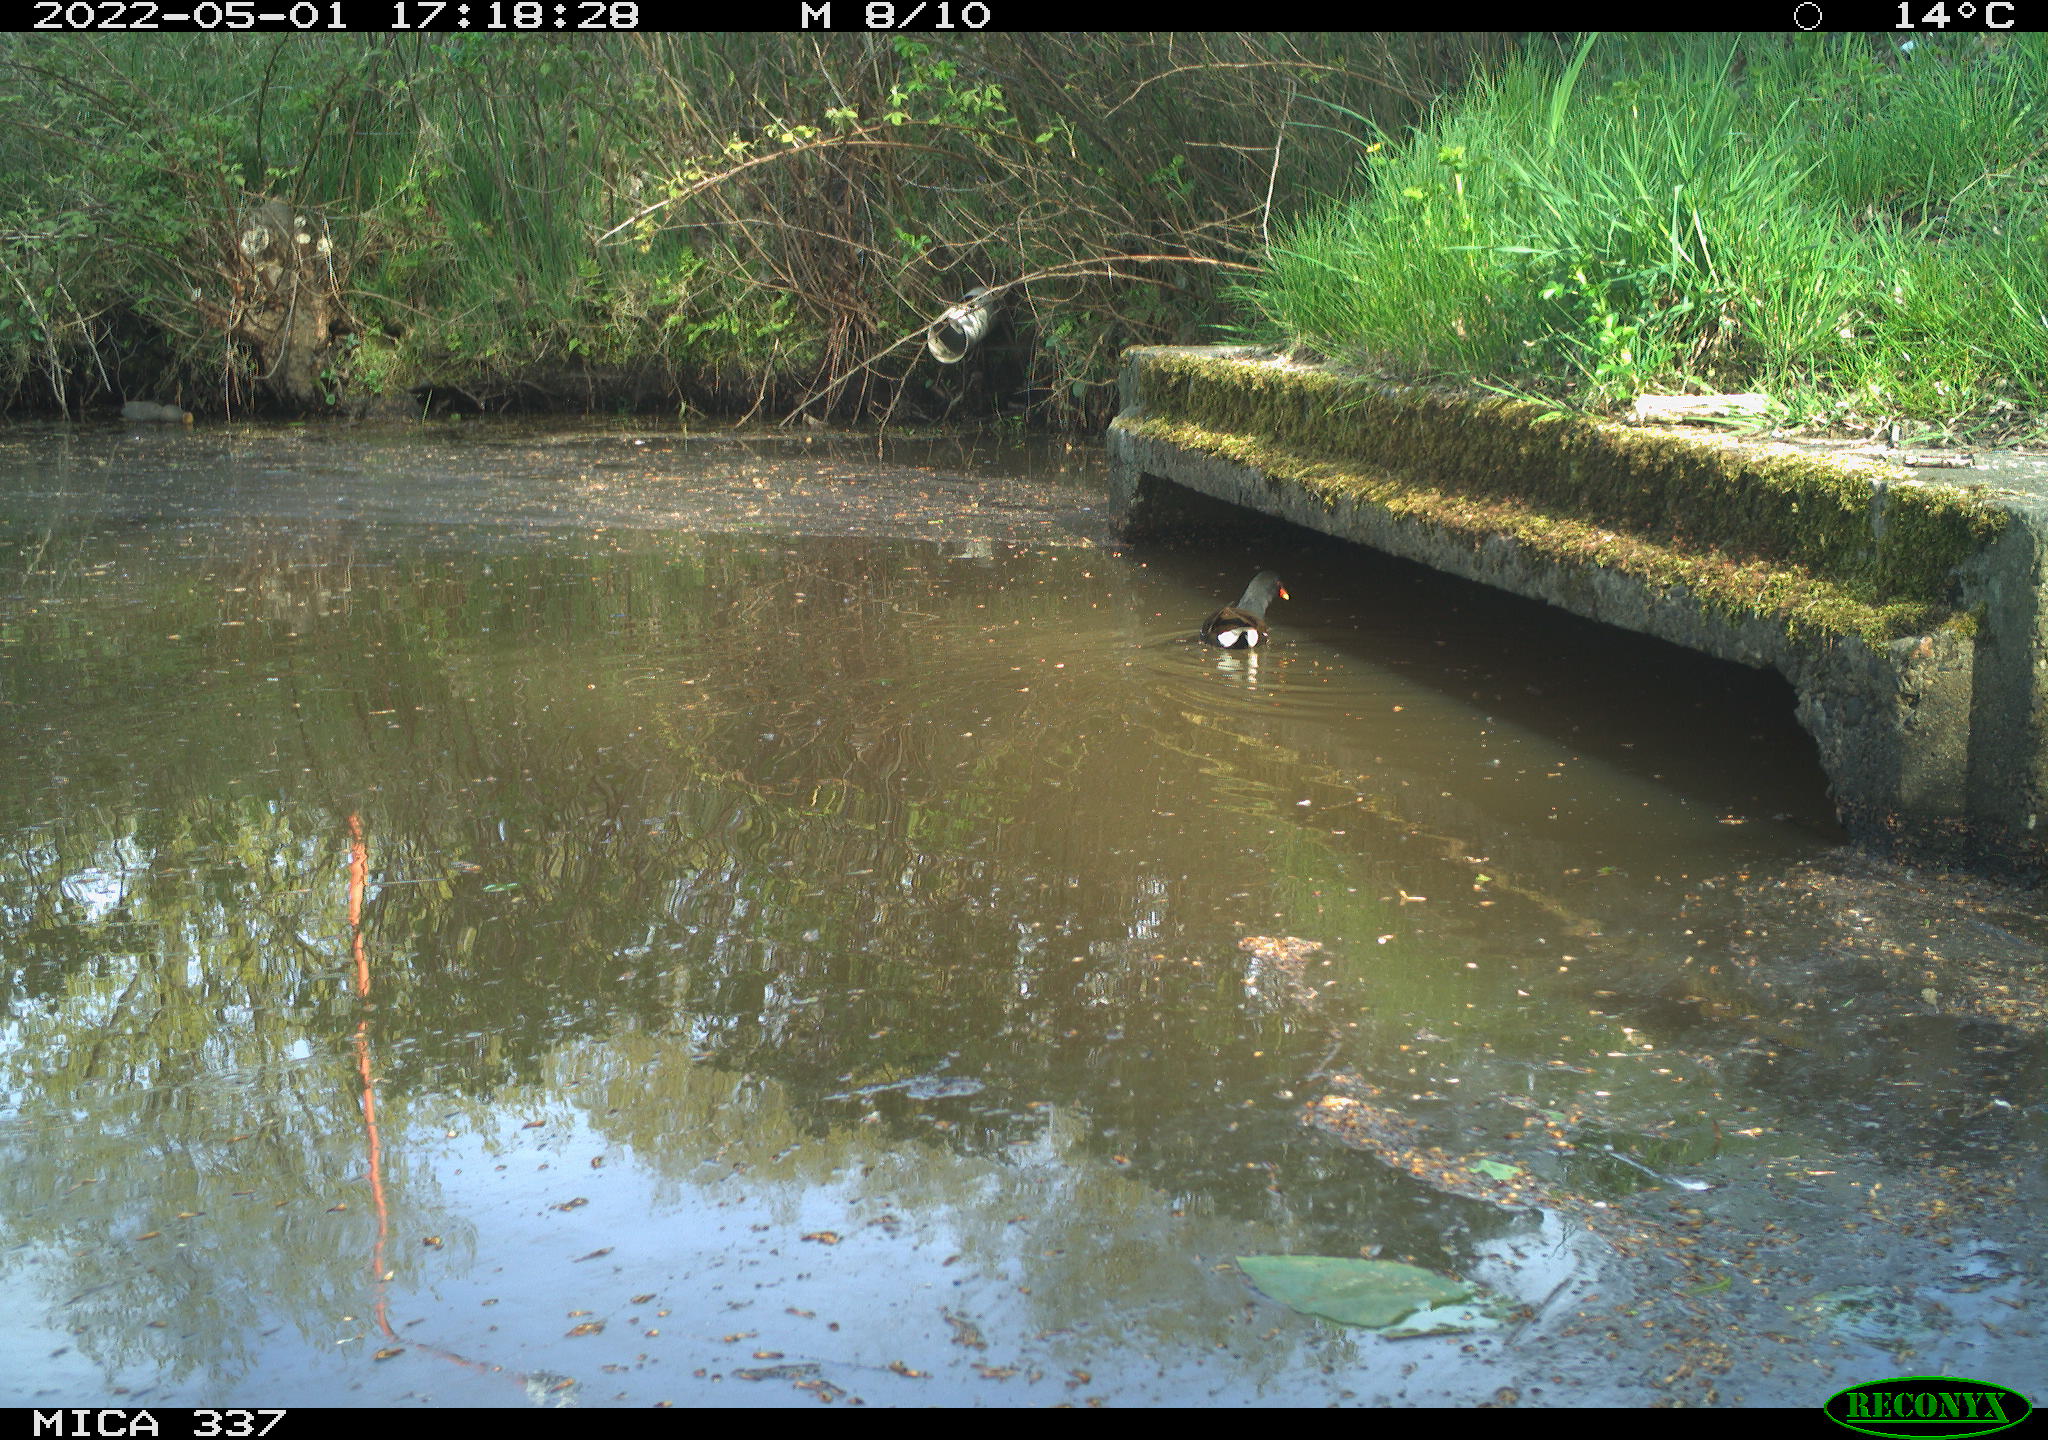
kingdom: Animalia
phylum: Chordata
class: Aves
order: Gruiformes
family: Rallidae
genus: Gallinula
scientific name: Gallinula chloropus
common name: Common moorhen
